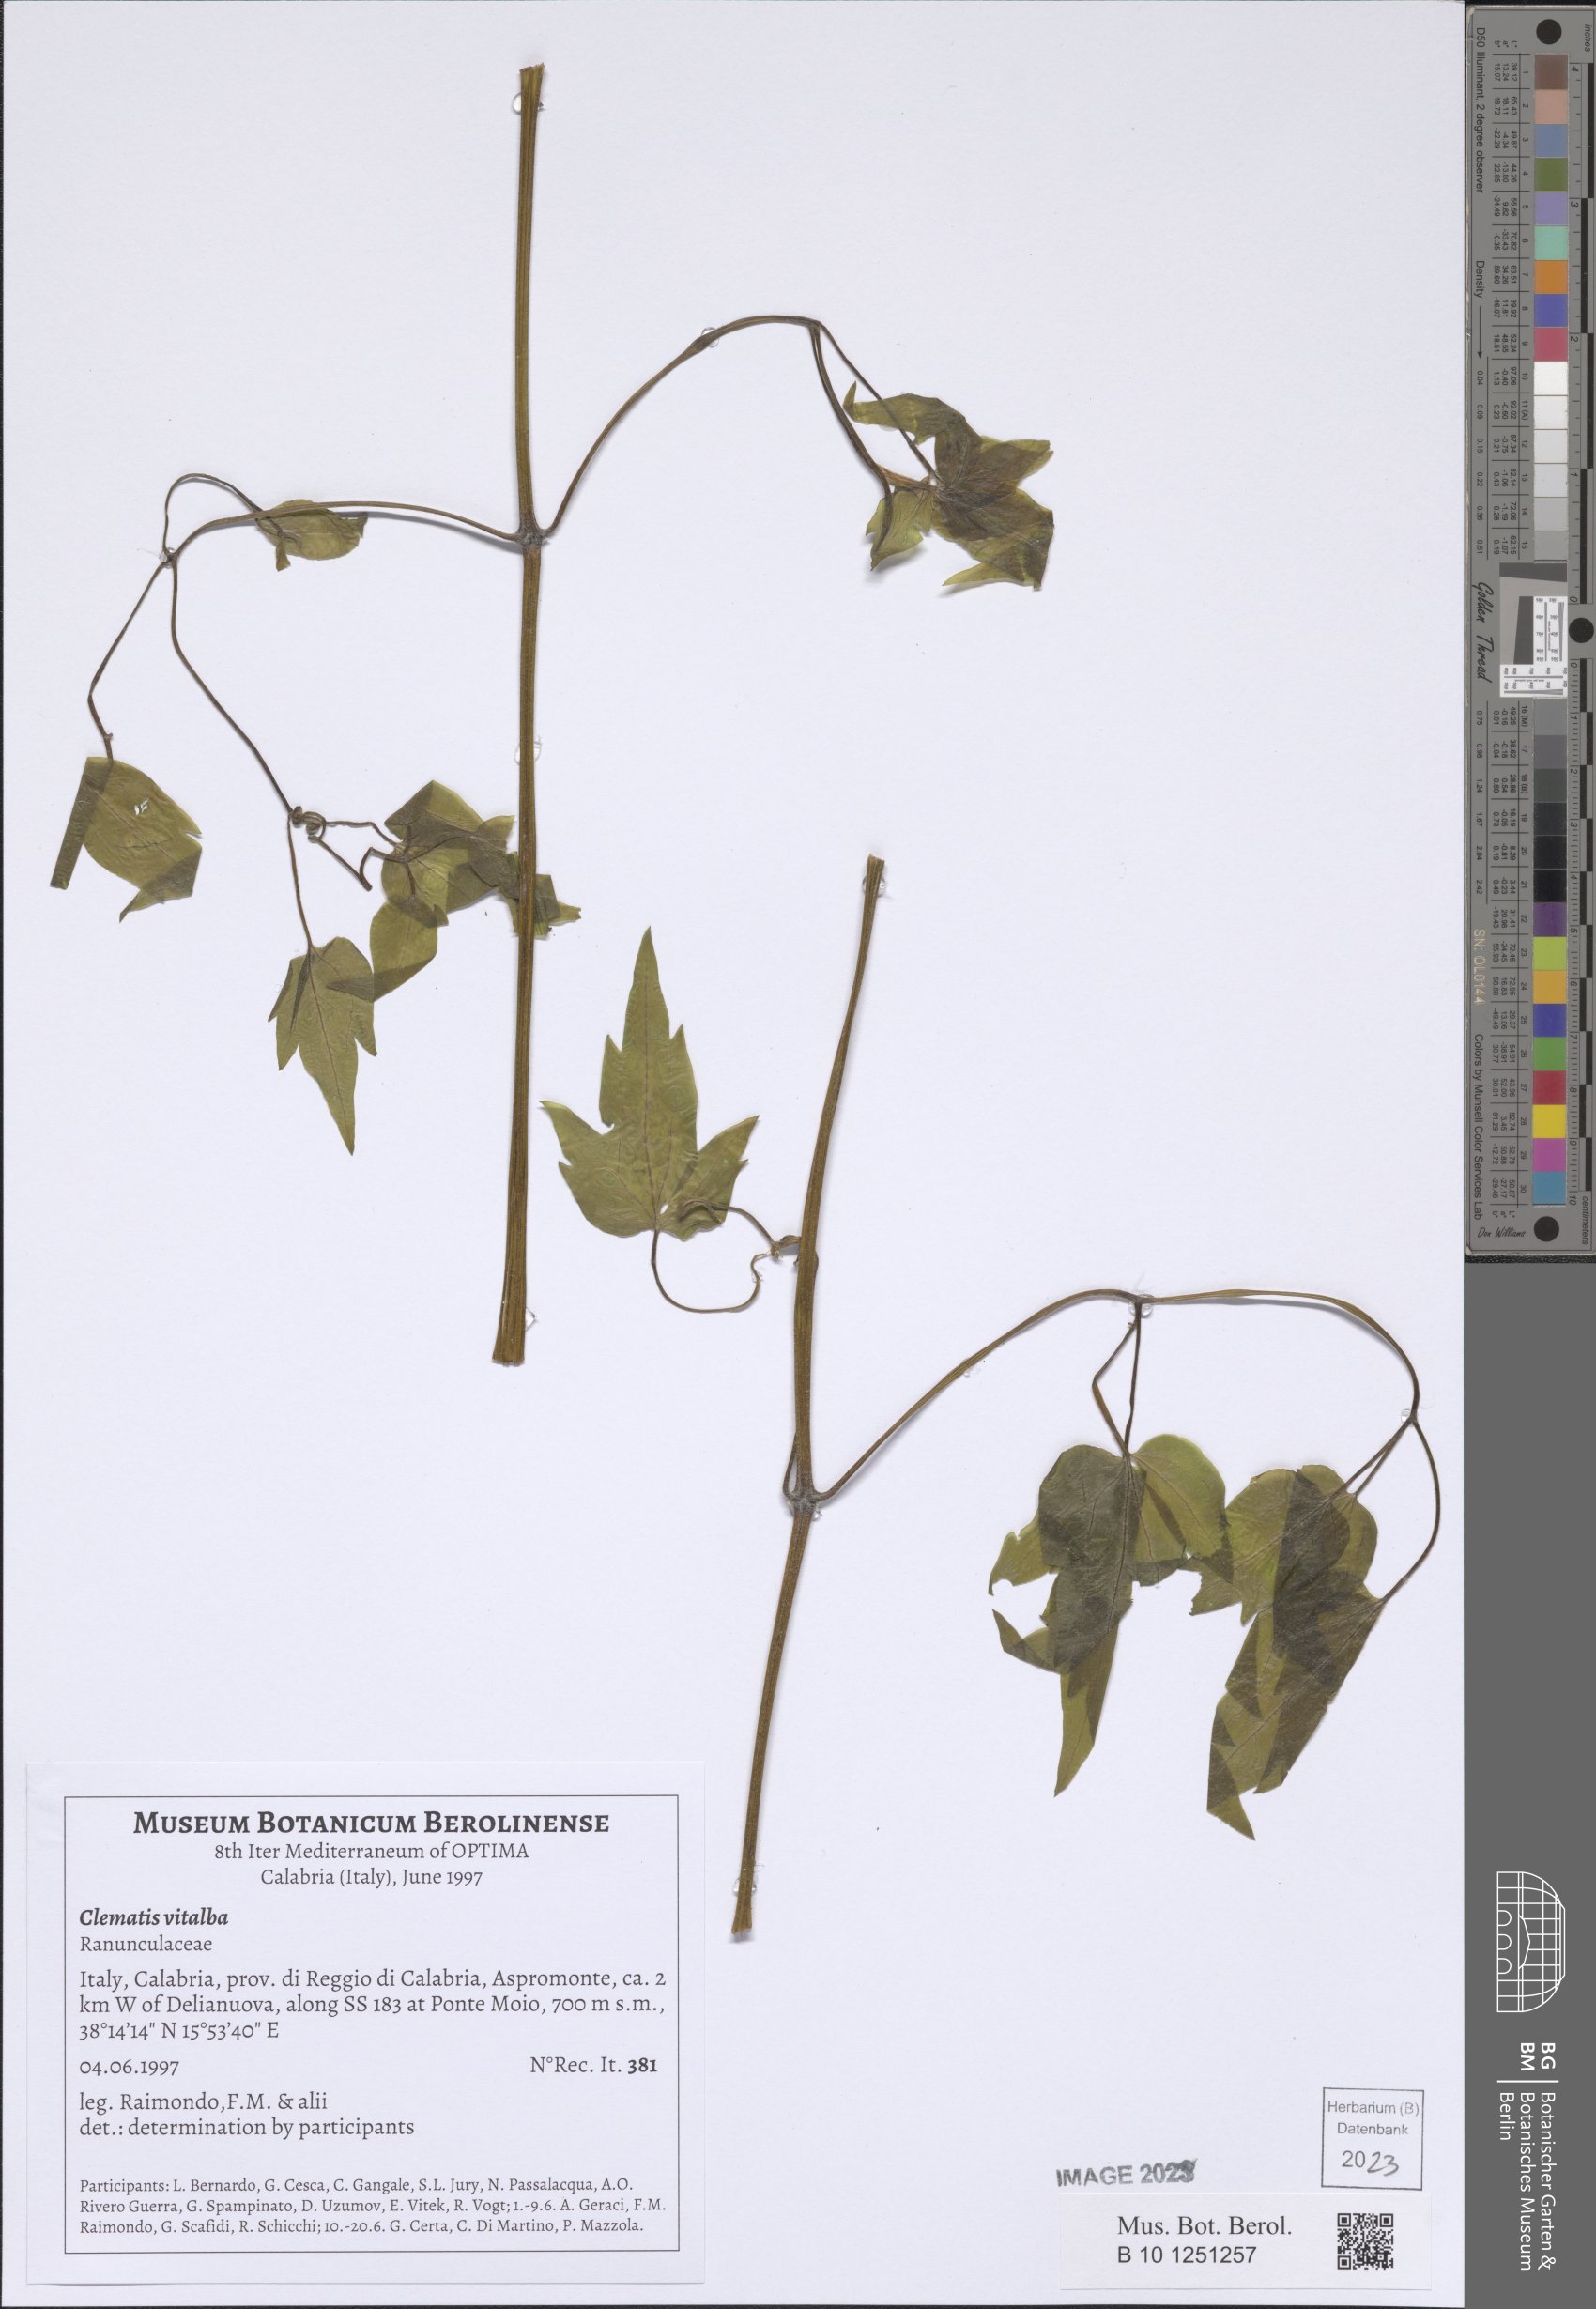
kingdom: Plantae
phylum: Tracheophyta
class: Magnoliopsida
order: Ranunculales
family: Ranunculaceae
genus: Clematis
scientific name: Clematis vitalba
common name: Evergreen clematis
